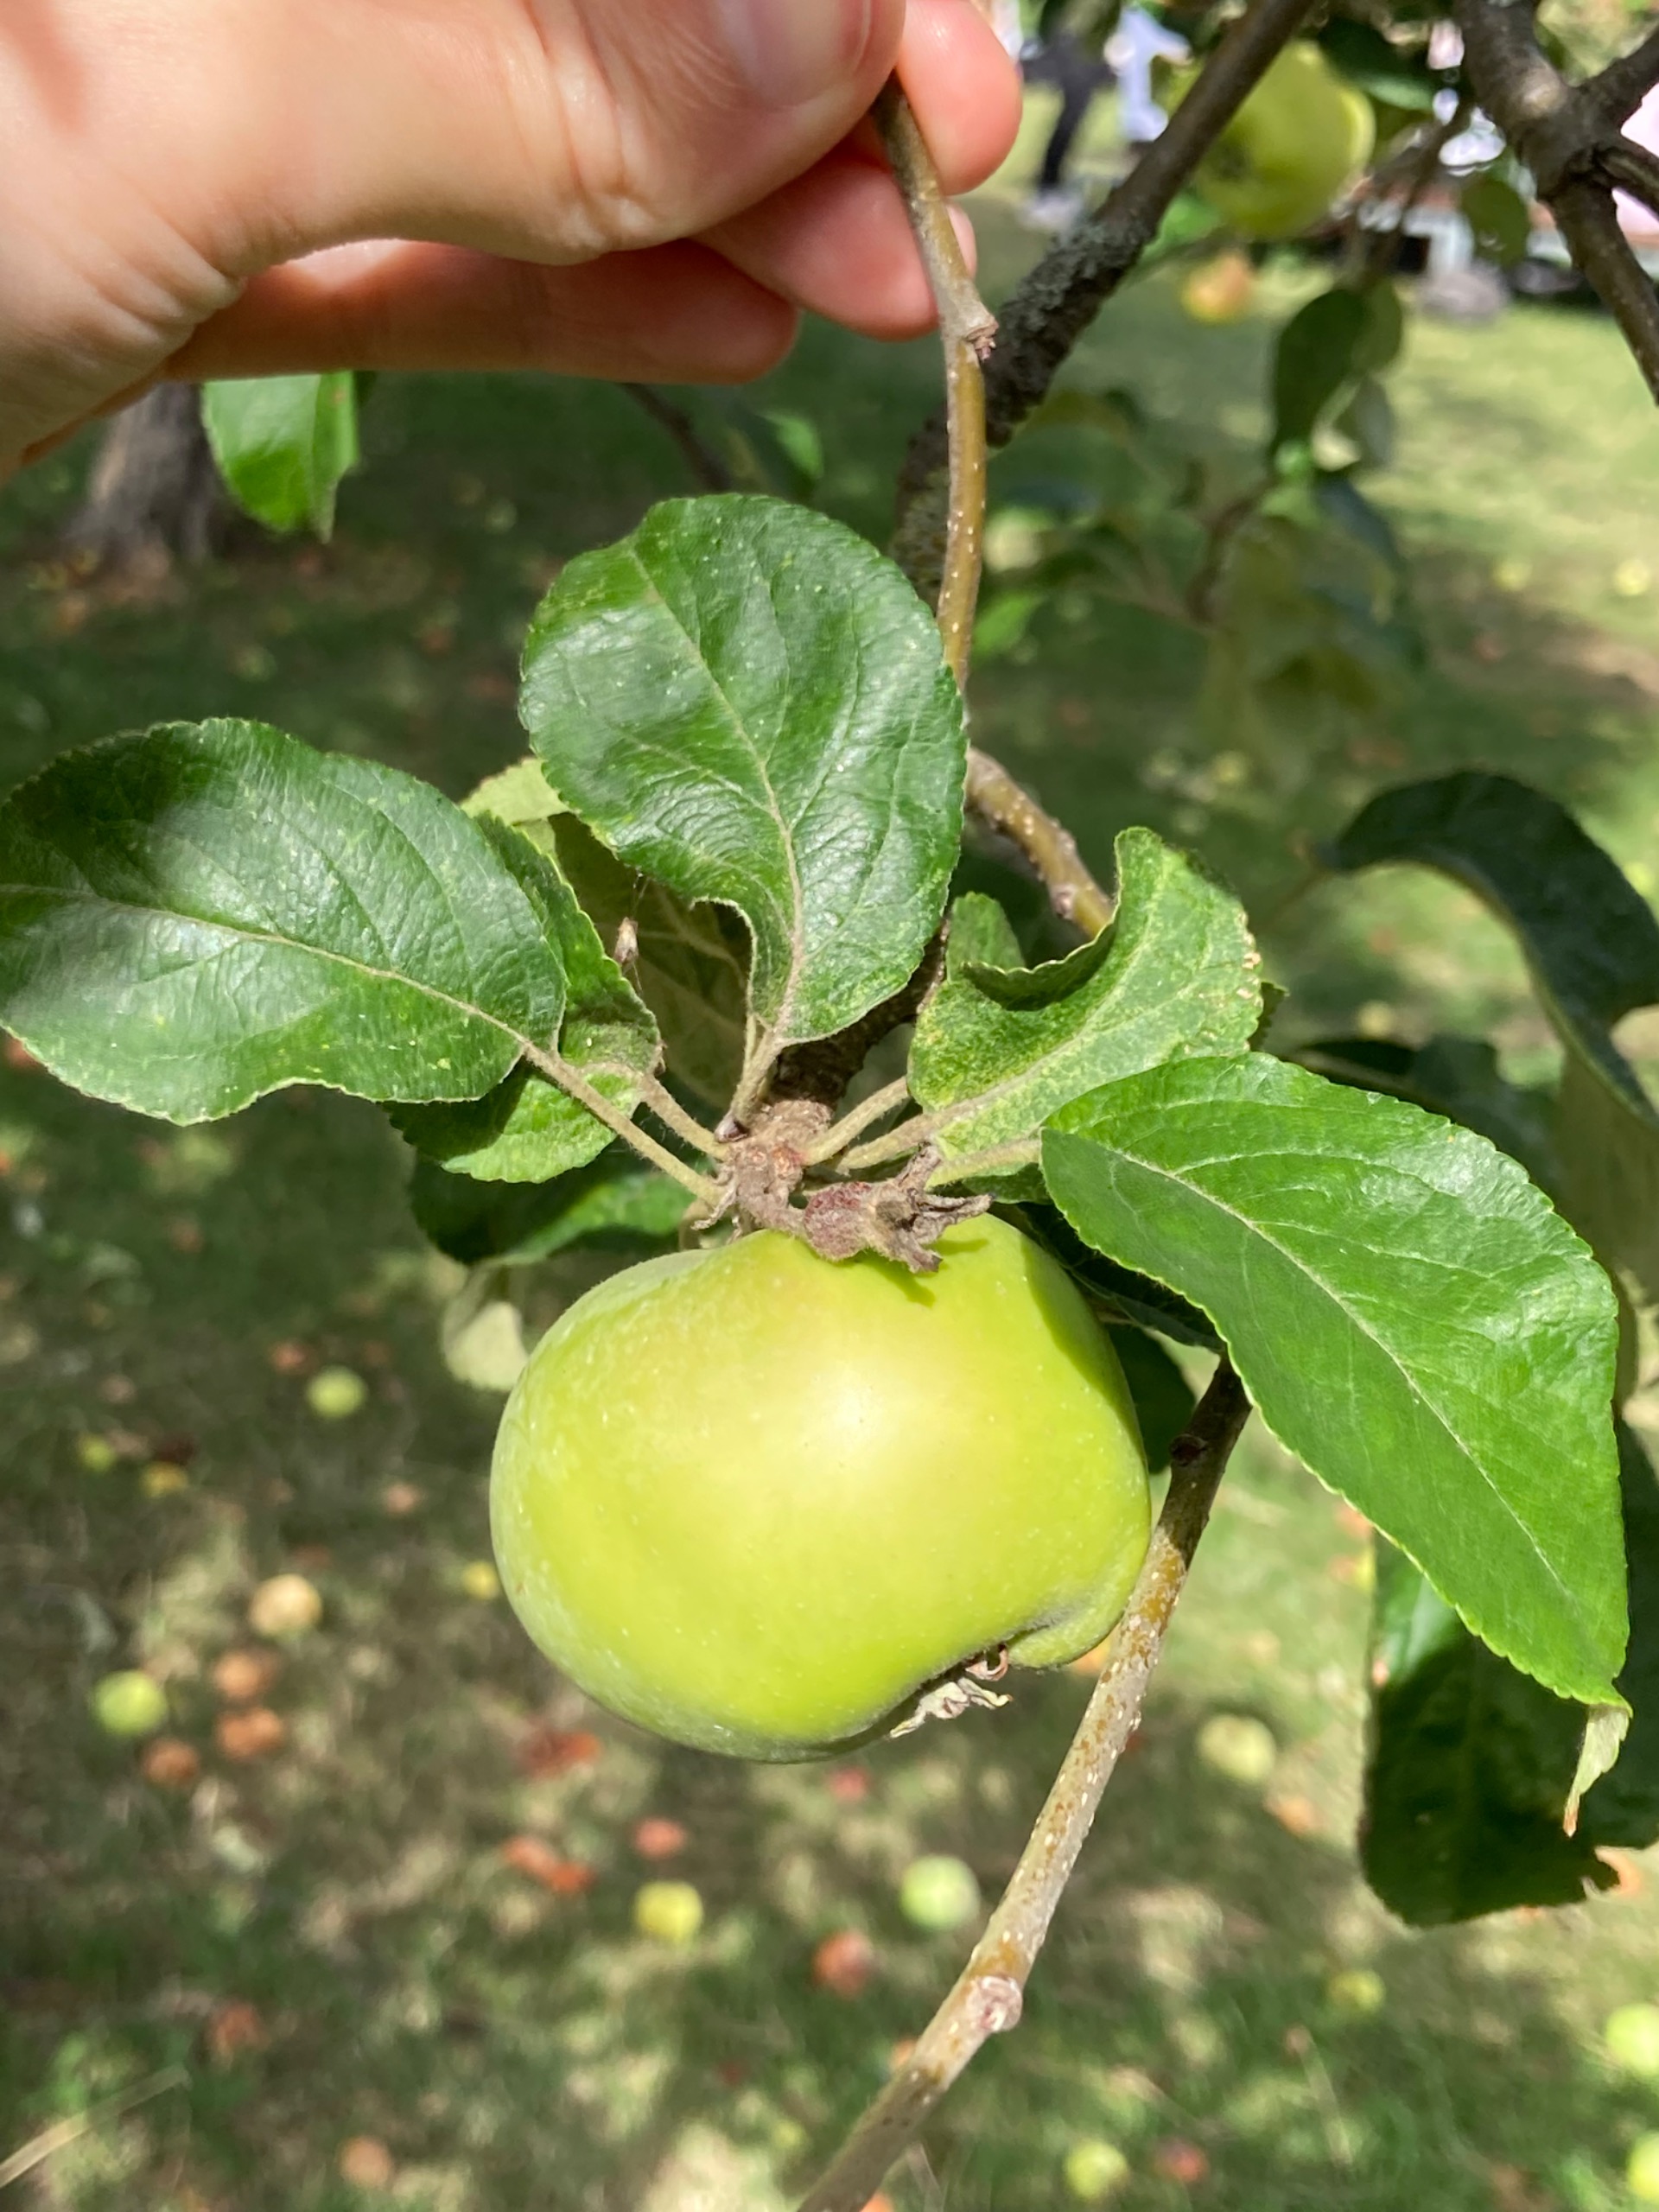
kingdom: Plantae
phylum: Tracheophyta
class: Magnoliopsida
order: Rosales
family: Rosaceae
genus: Malus
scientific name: Malus domestica
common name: Sød-æble
